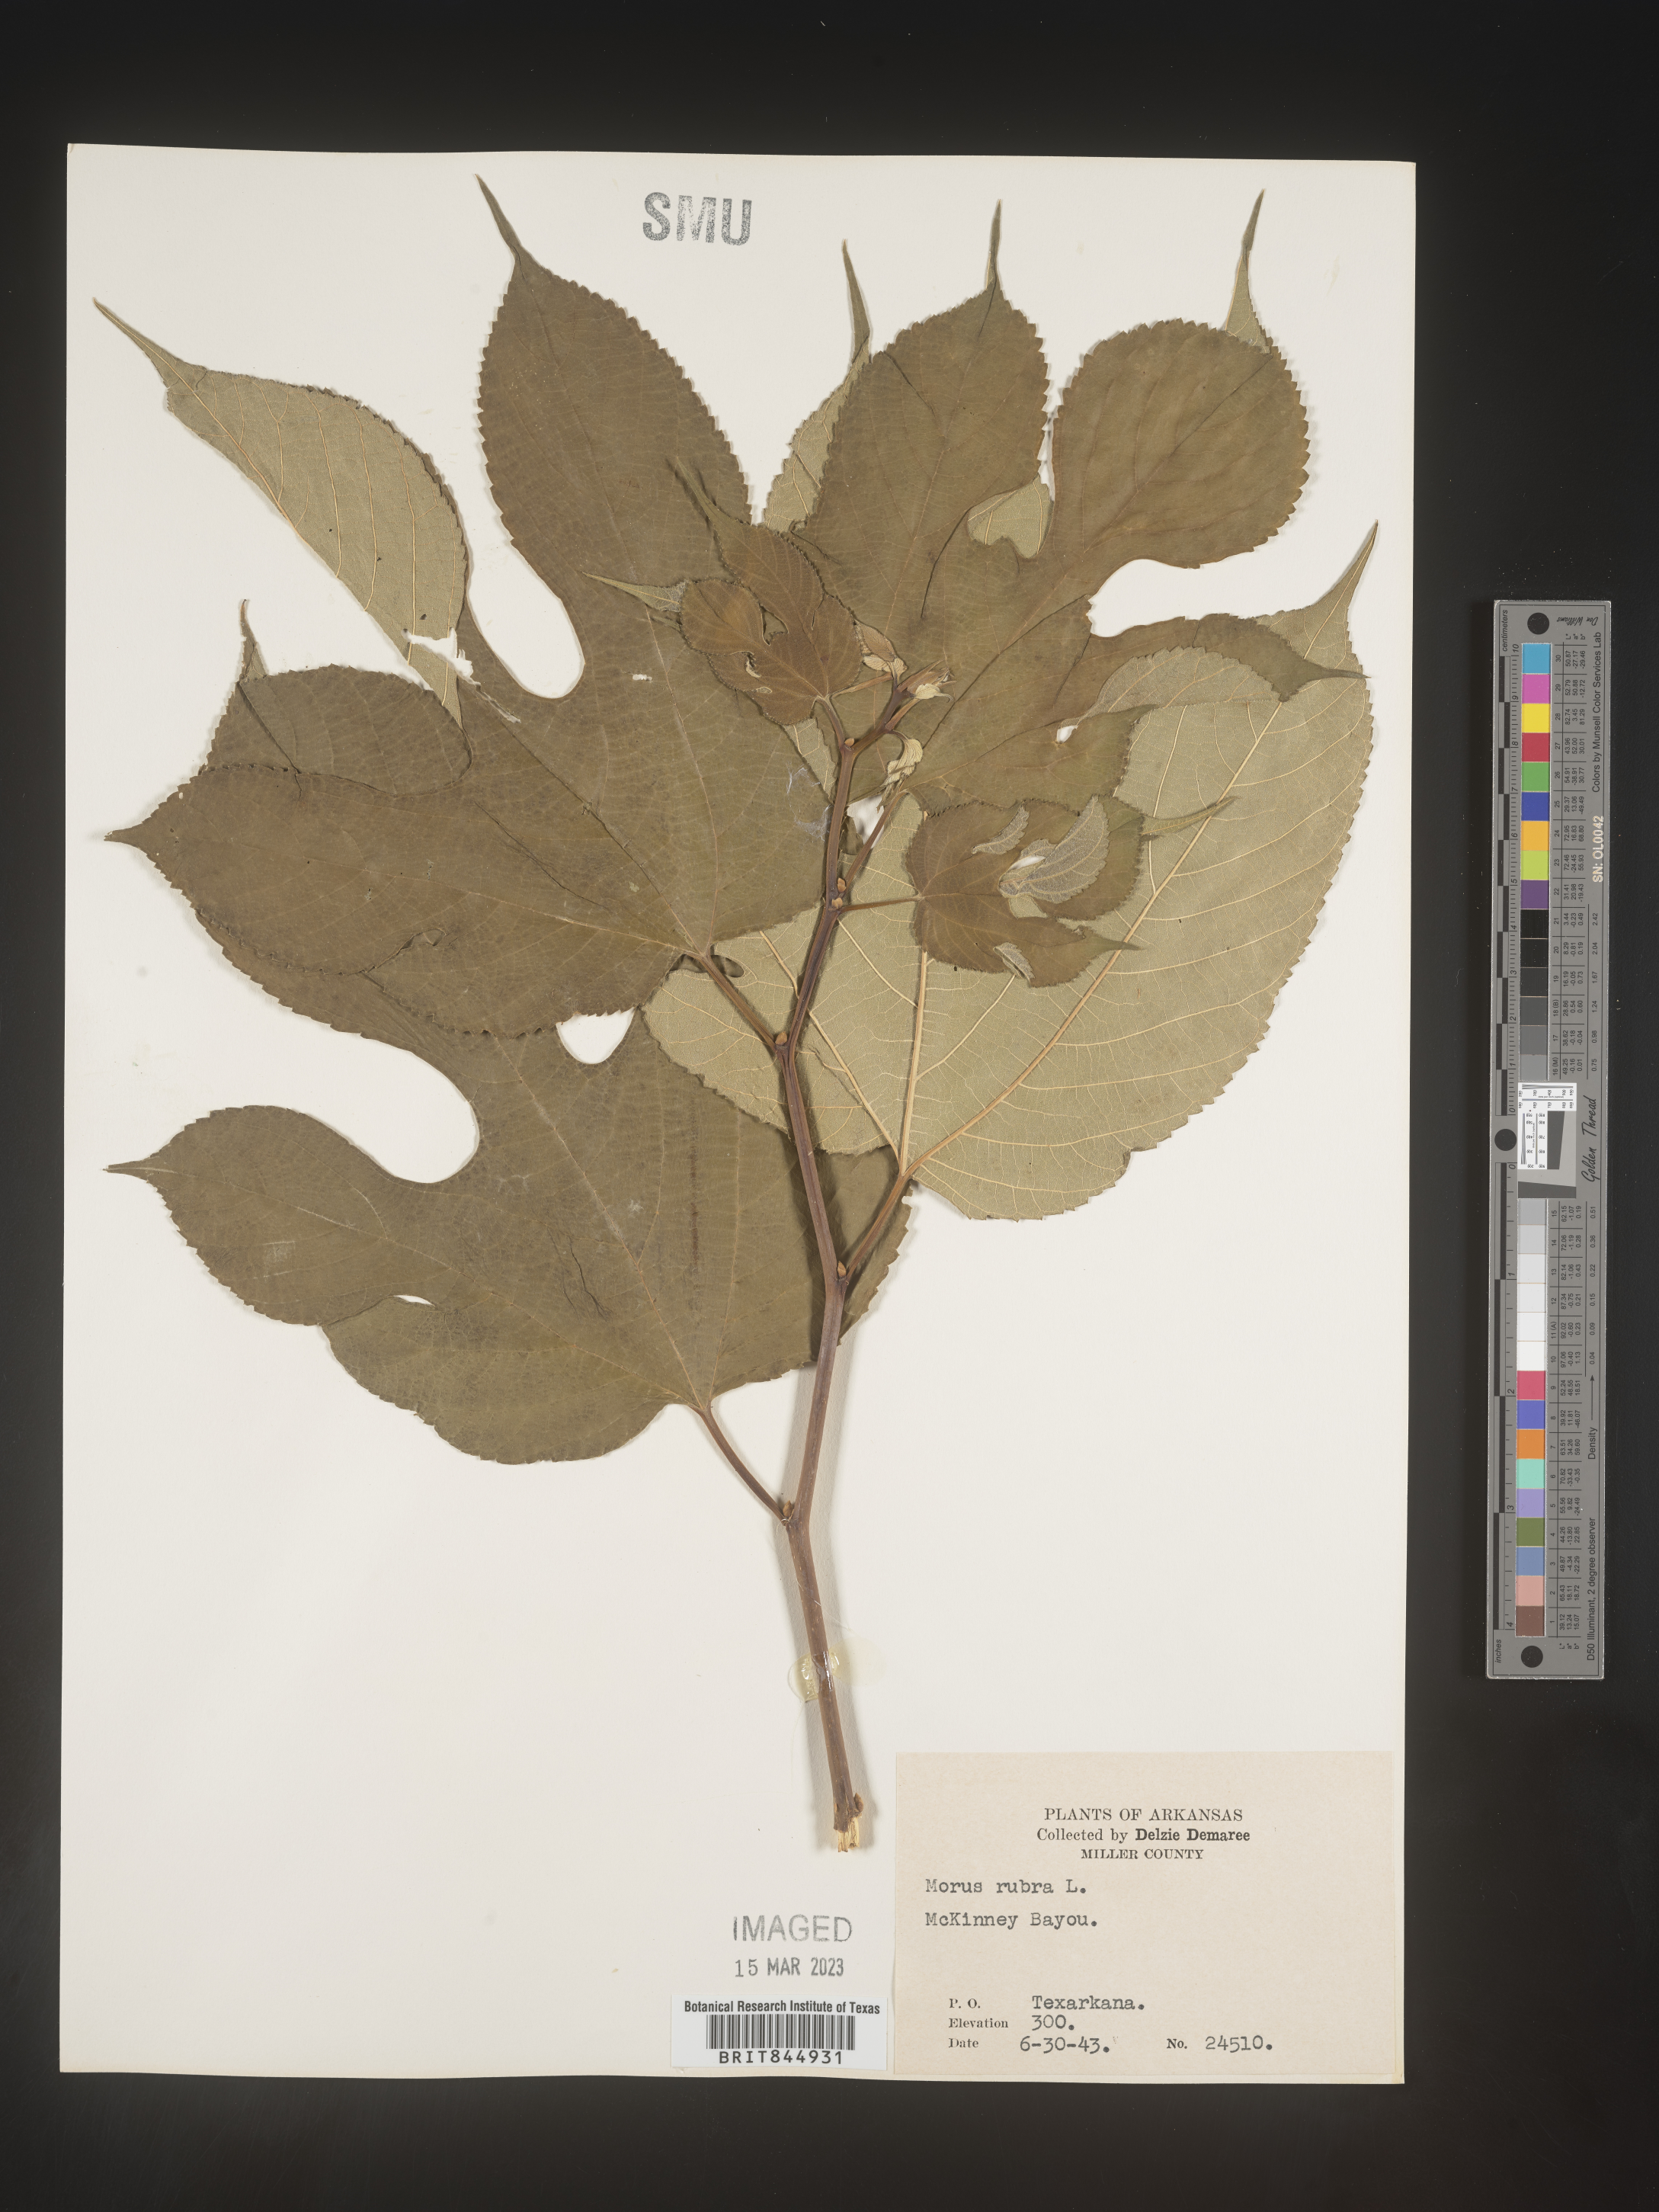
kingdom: Plantae
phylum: Tracheophyta
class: Magnoliopsida
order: Rosales
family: Moraceae
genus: Morus
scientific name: Morus rubra
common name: Red mulberry
